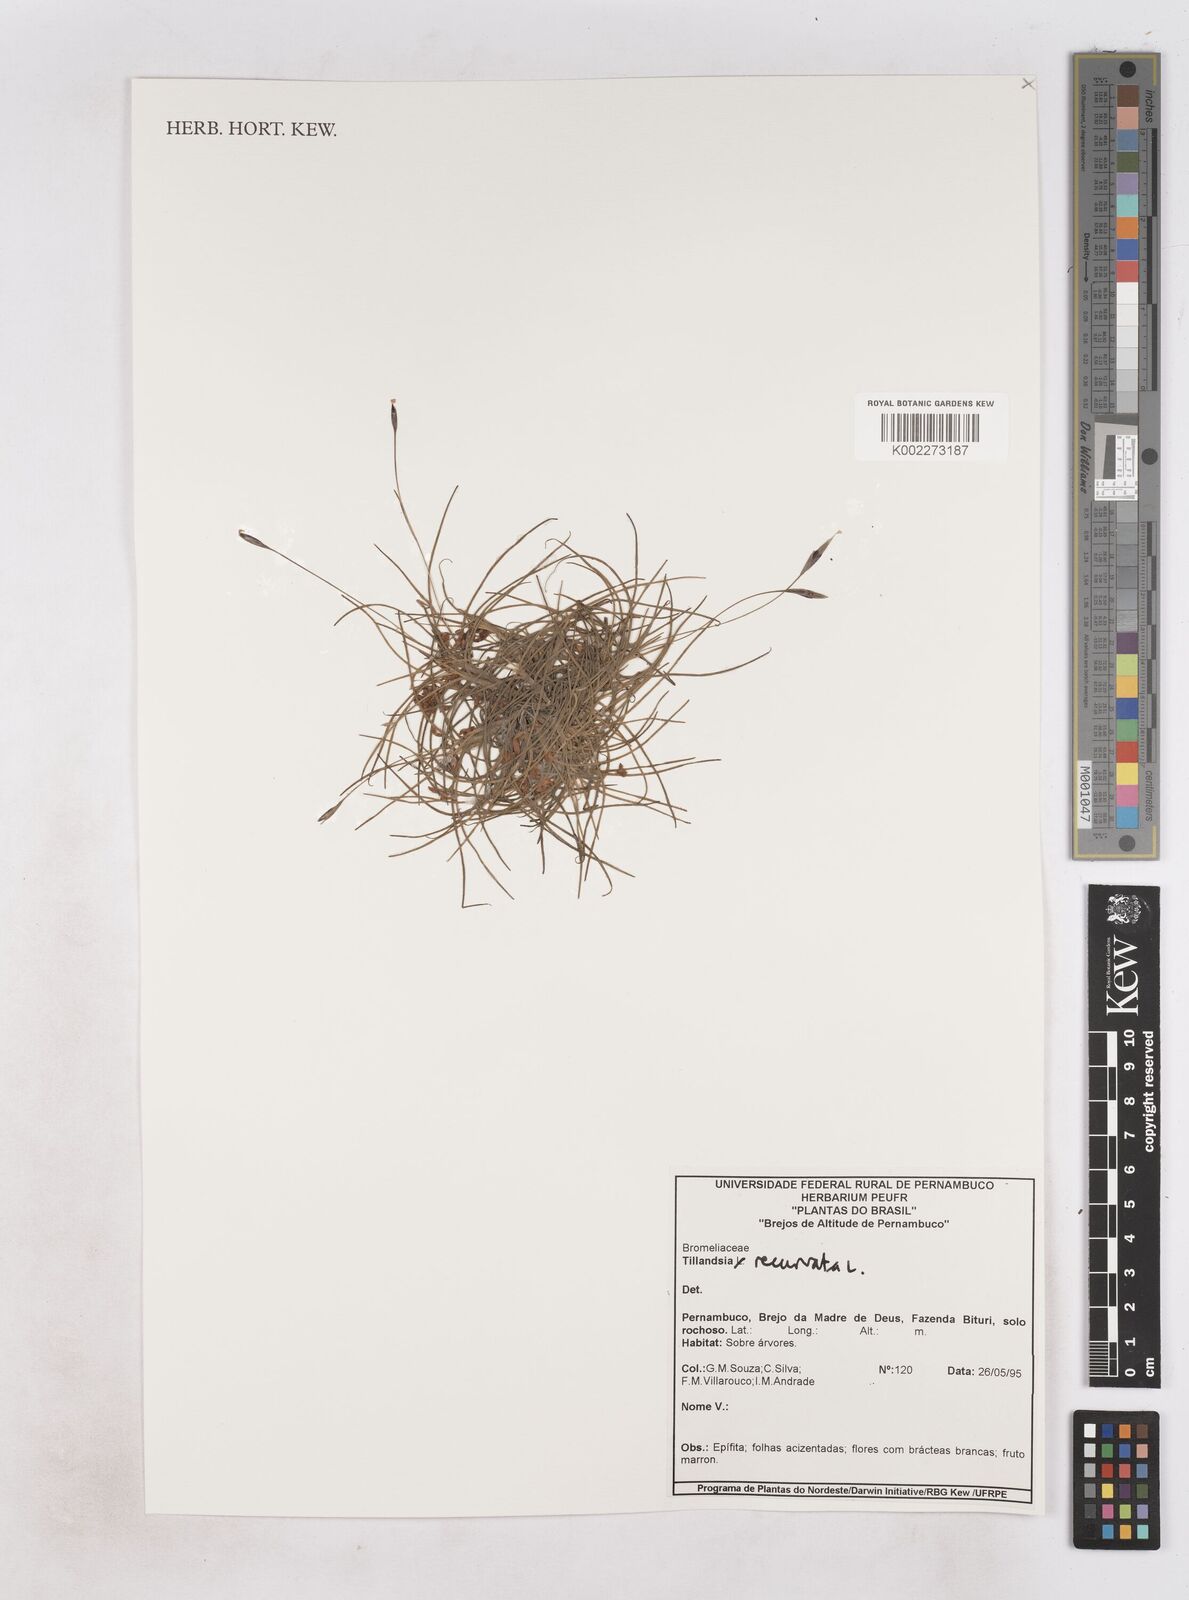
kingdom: Plantae
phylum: Tracheophyta
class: Liliopsida
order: Poales
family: Bromeliaceae
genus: Tillandsia
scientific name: Tillandsia recurvata
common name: Small ballmoss
